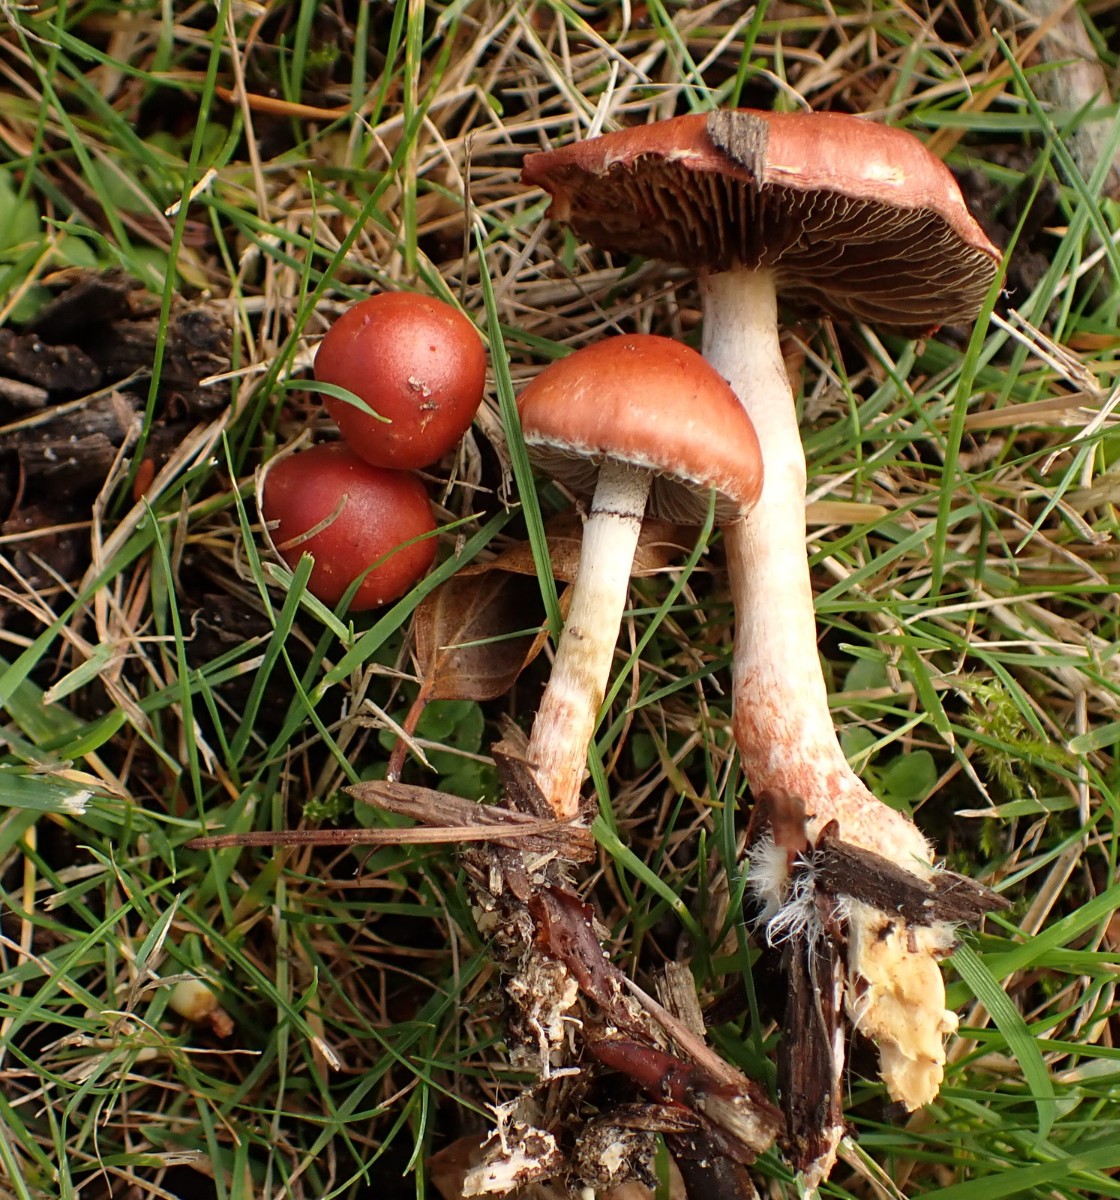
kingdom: Fungi
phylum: Basidiomycota
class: Agaricomycetes
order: Agaricales
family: Strophariaceae
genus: Leratiomyces
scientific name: Leratiomyces ceres
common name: orange bredblad
